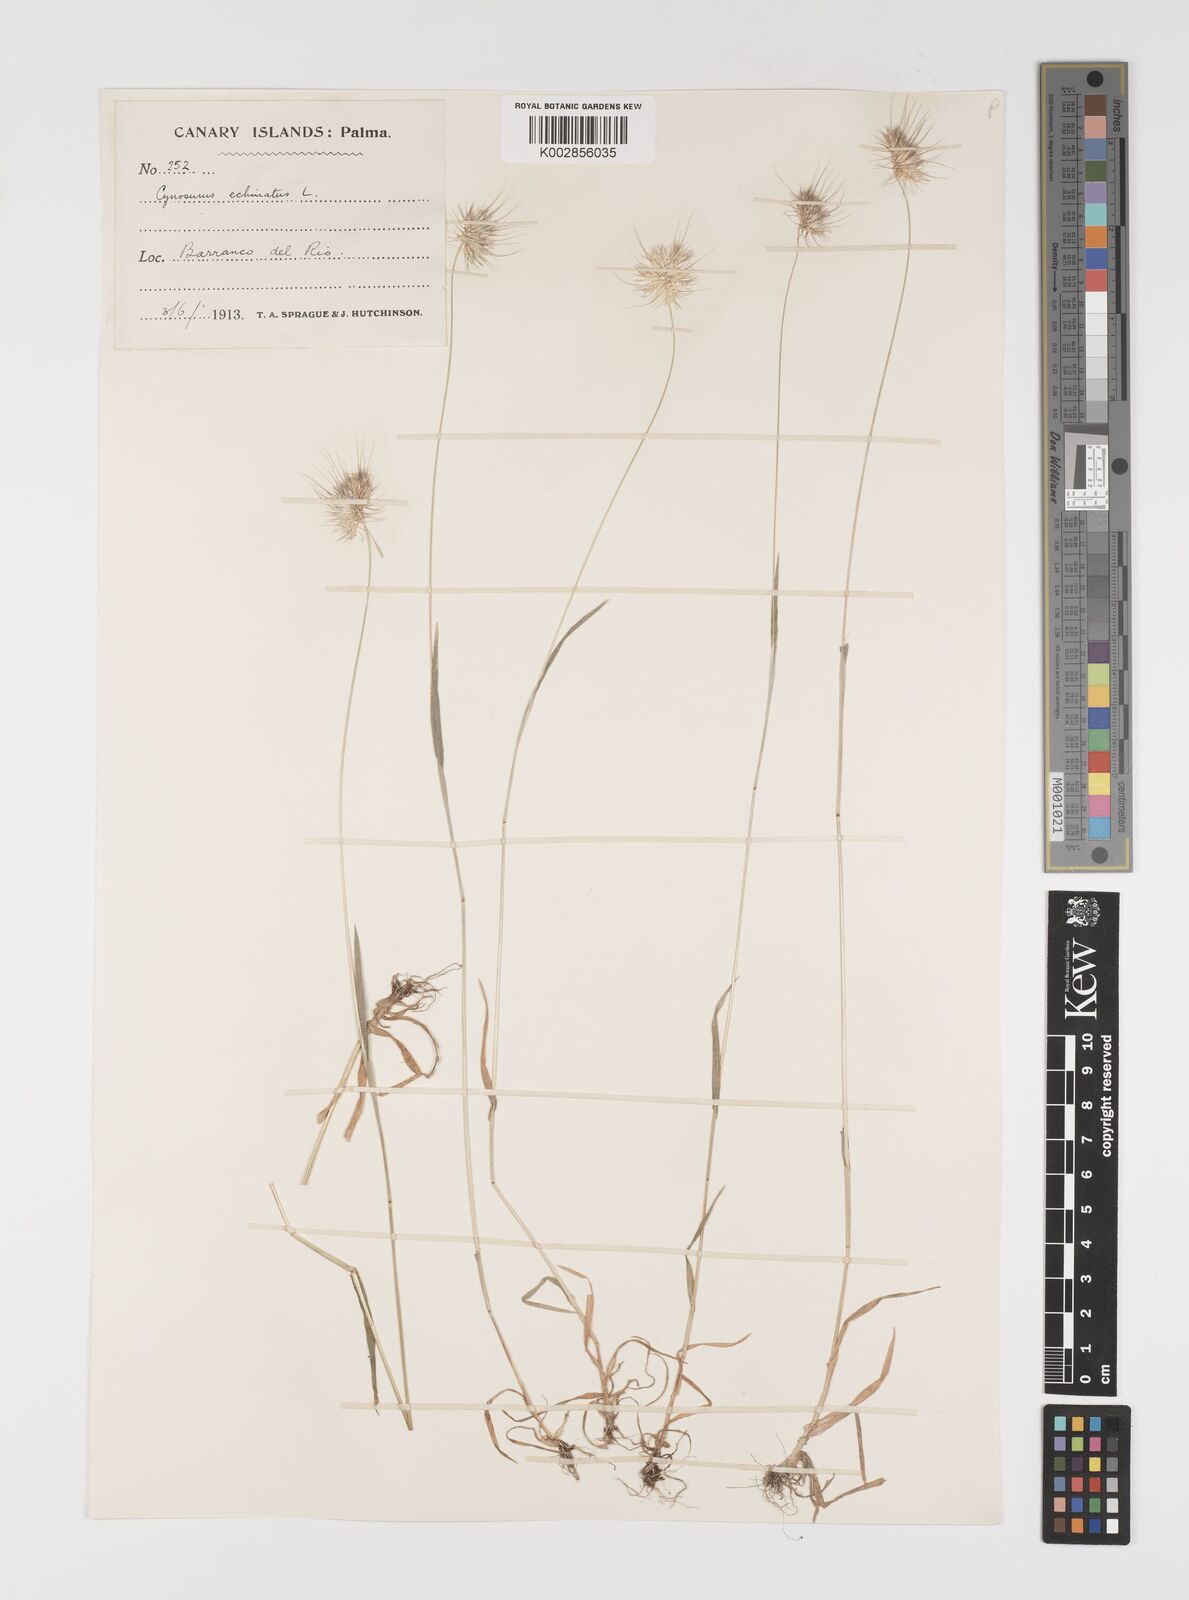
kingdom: Plantae
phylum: Tracheophyta
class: Liliopsida
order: Poales
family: Poaceae
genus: Cynosurus
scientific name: Cynosurus echinatus
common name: Rough dog's-tail
